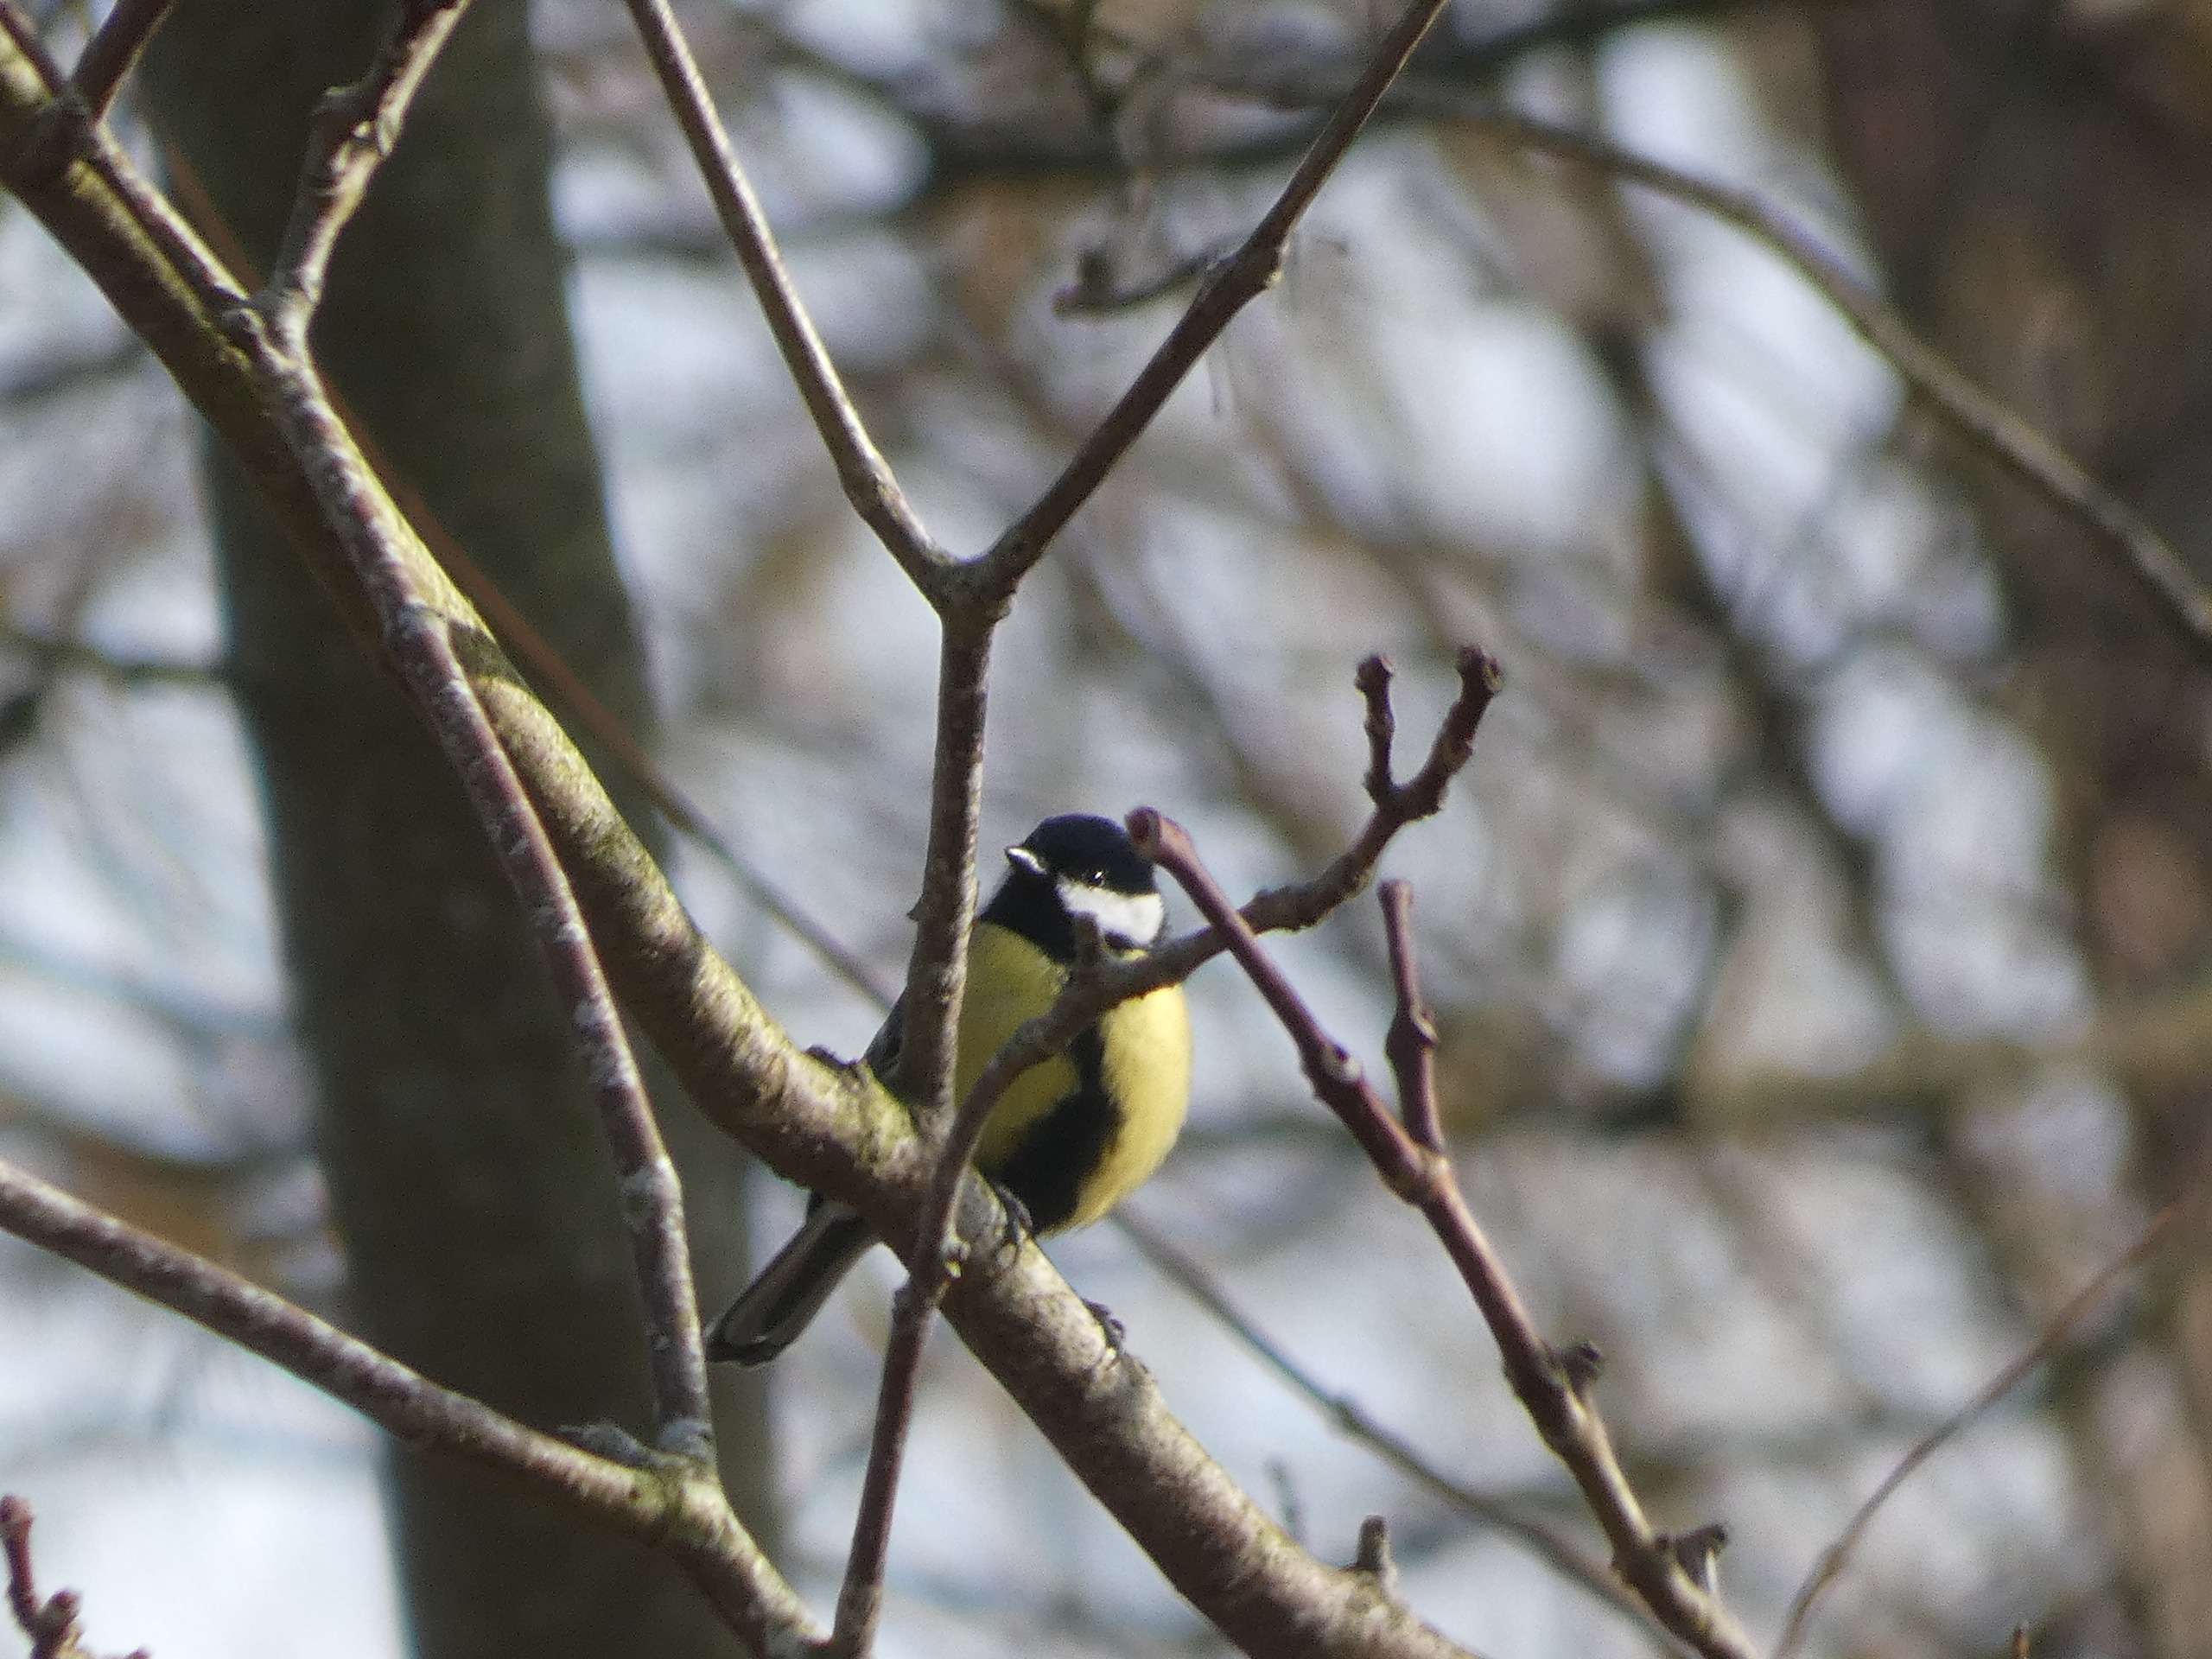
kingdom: Animalia
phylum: Chordata
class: Aves
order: Passeriformes
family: Paridae
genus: Parus
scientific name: Parus major
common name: Musvit
